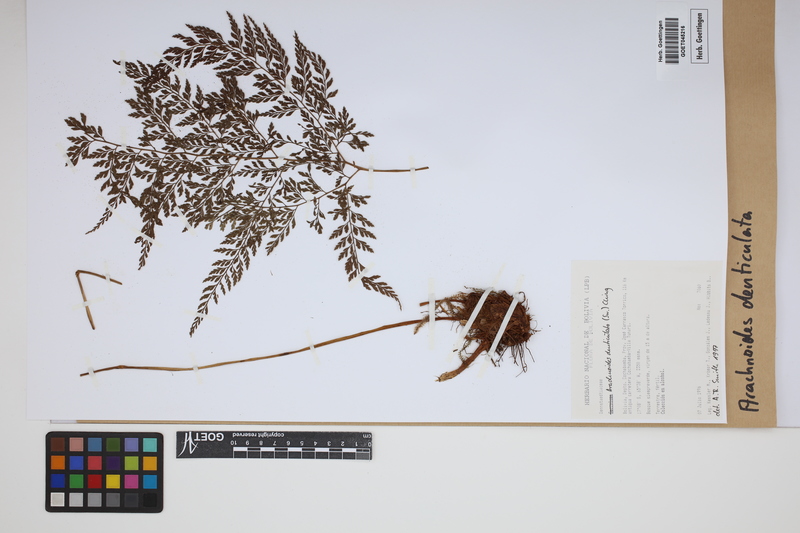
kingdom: Plantae
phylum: Tracheophyta
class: Polypodiopsida
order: Polypodiales
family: Dryopteridaceae
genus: Arachniodes
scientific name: Arachniodes denticulata
